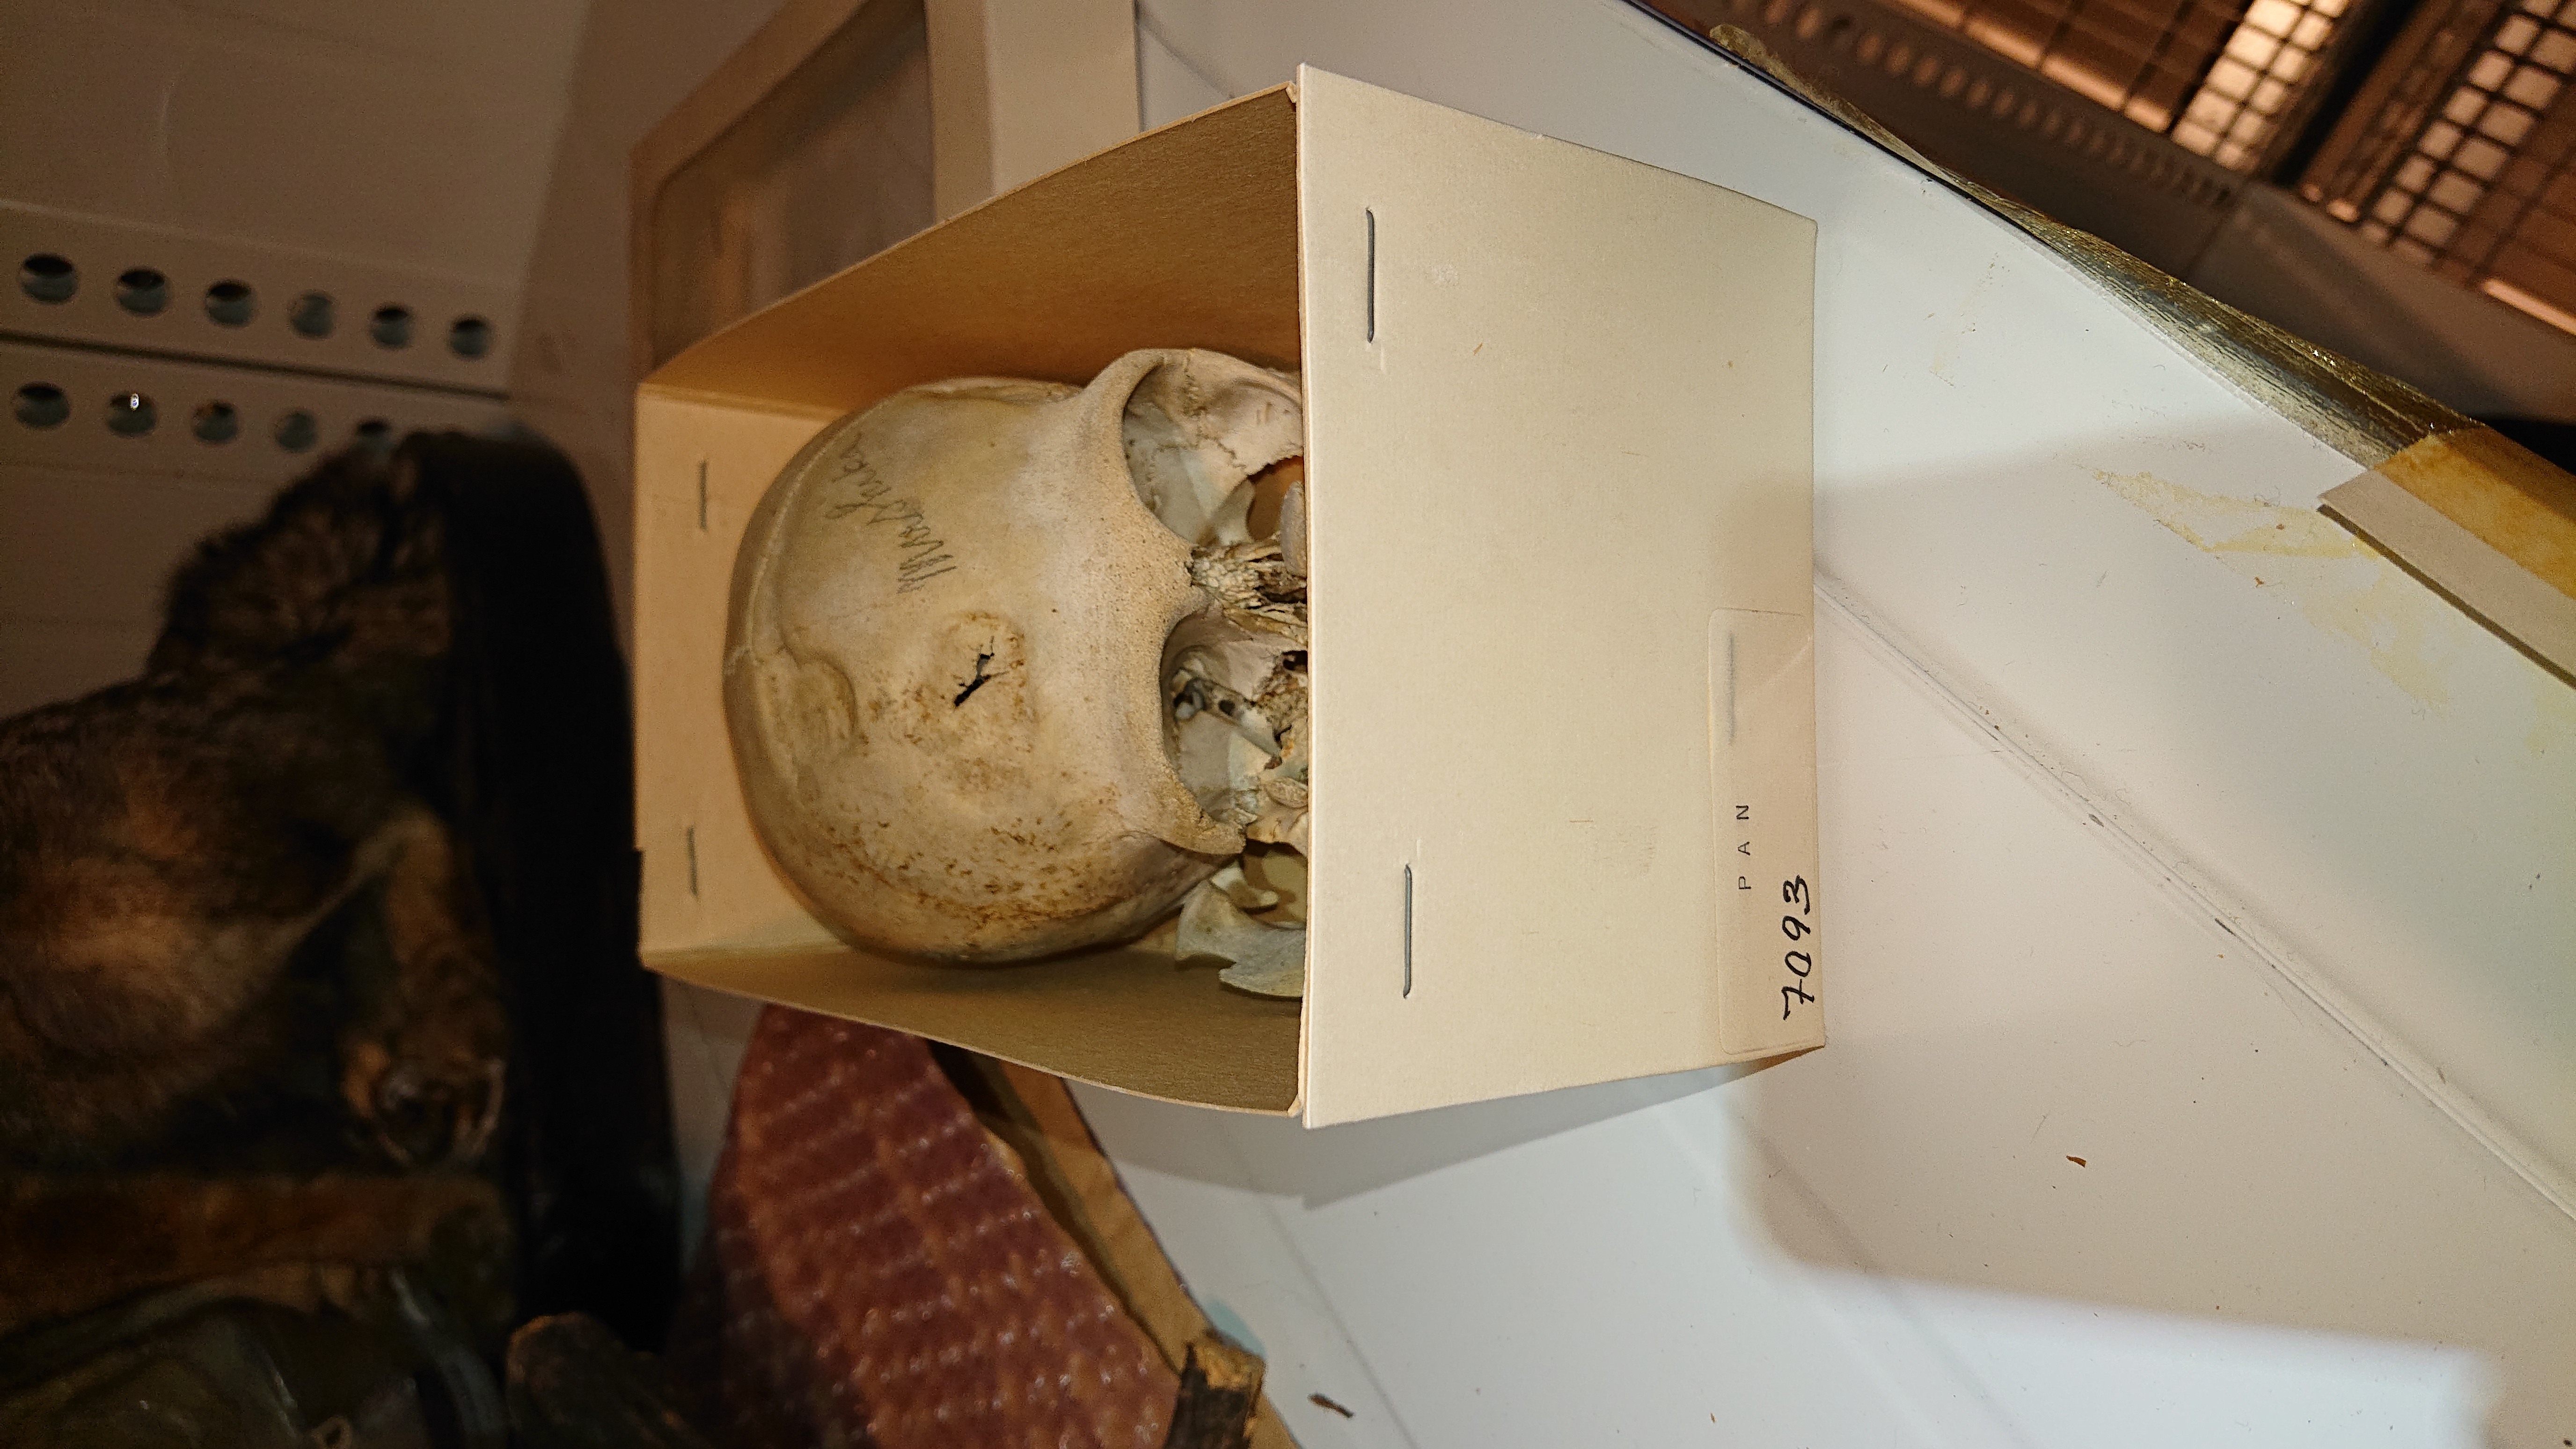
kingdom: Animalia
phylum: Chordata
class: Mammalia
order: Primates
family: Hominidae
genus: Pan
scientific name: Pan troglodytes
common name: Chimpanzee
